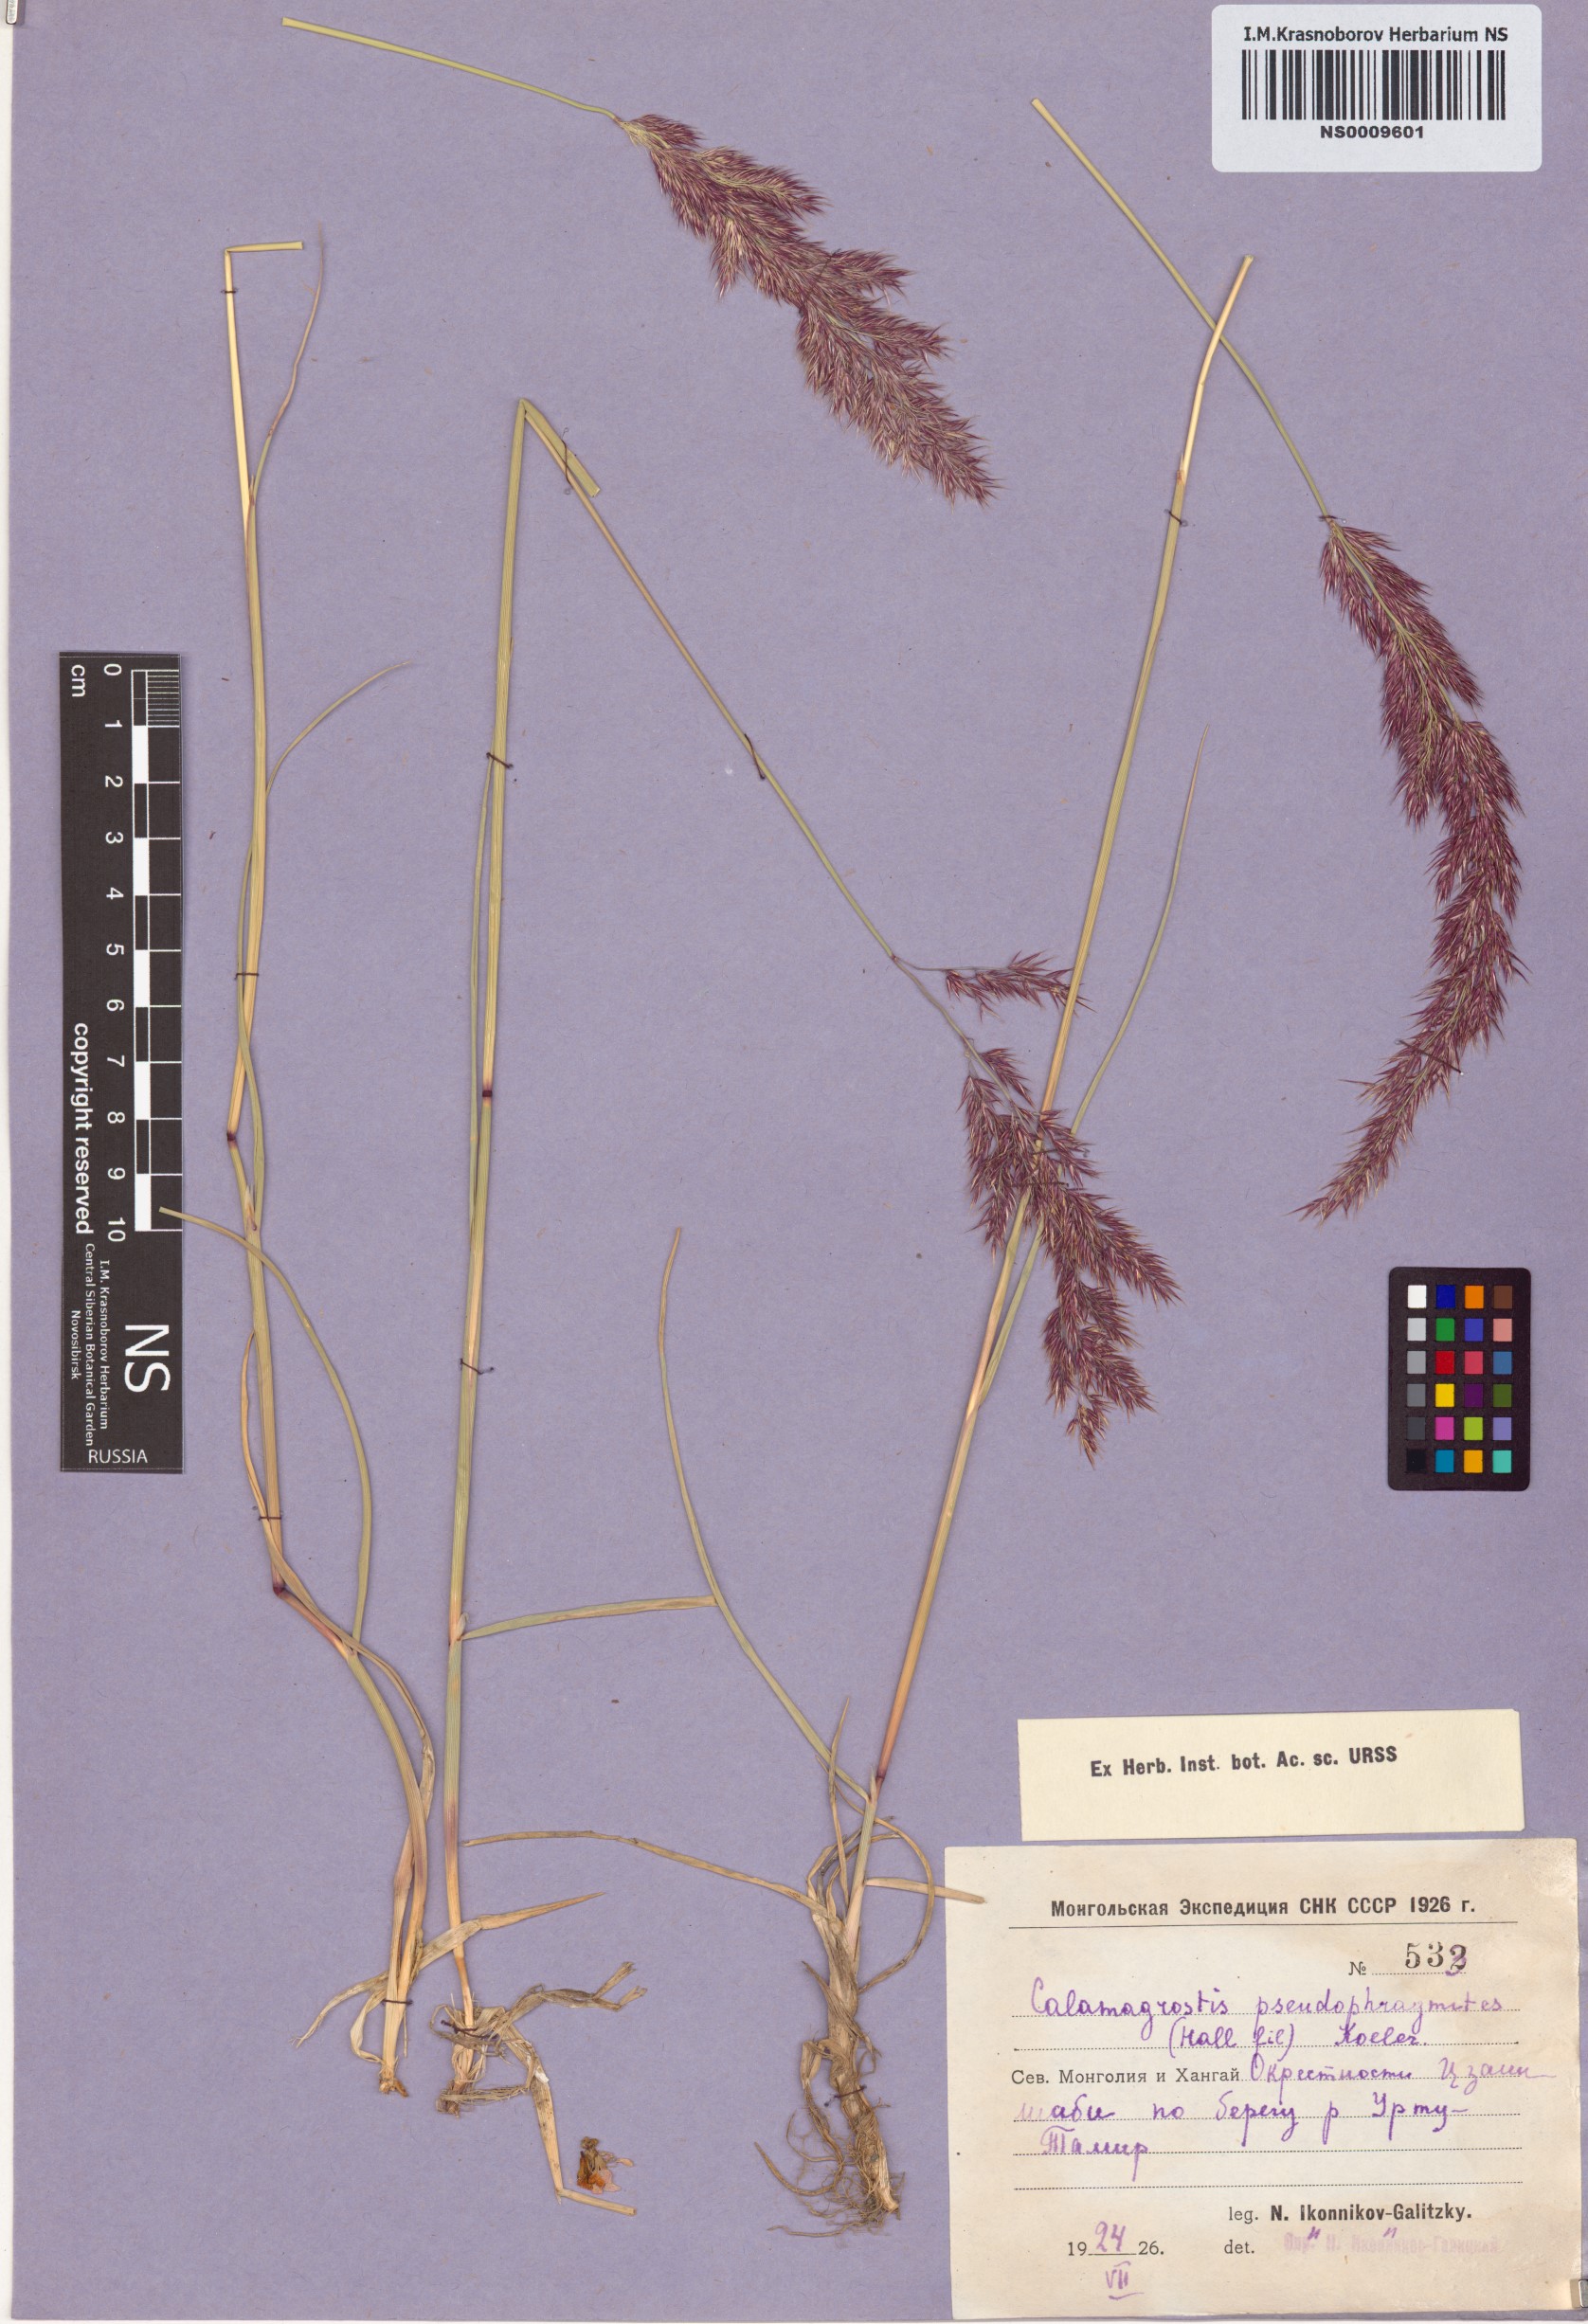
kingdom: Plantae
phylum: Tracheophyta
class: Liliopsida
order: Poales
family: Poaceae
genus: Calamagrostis
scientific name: Calamagrostis pseudophragmites
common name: Coastal small-reed
